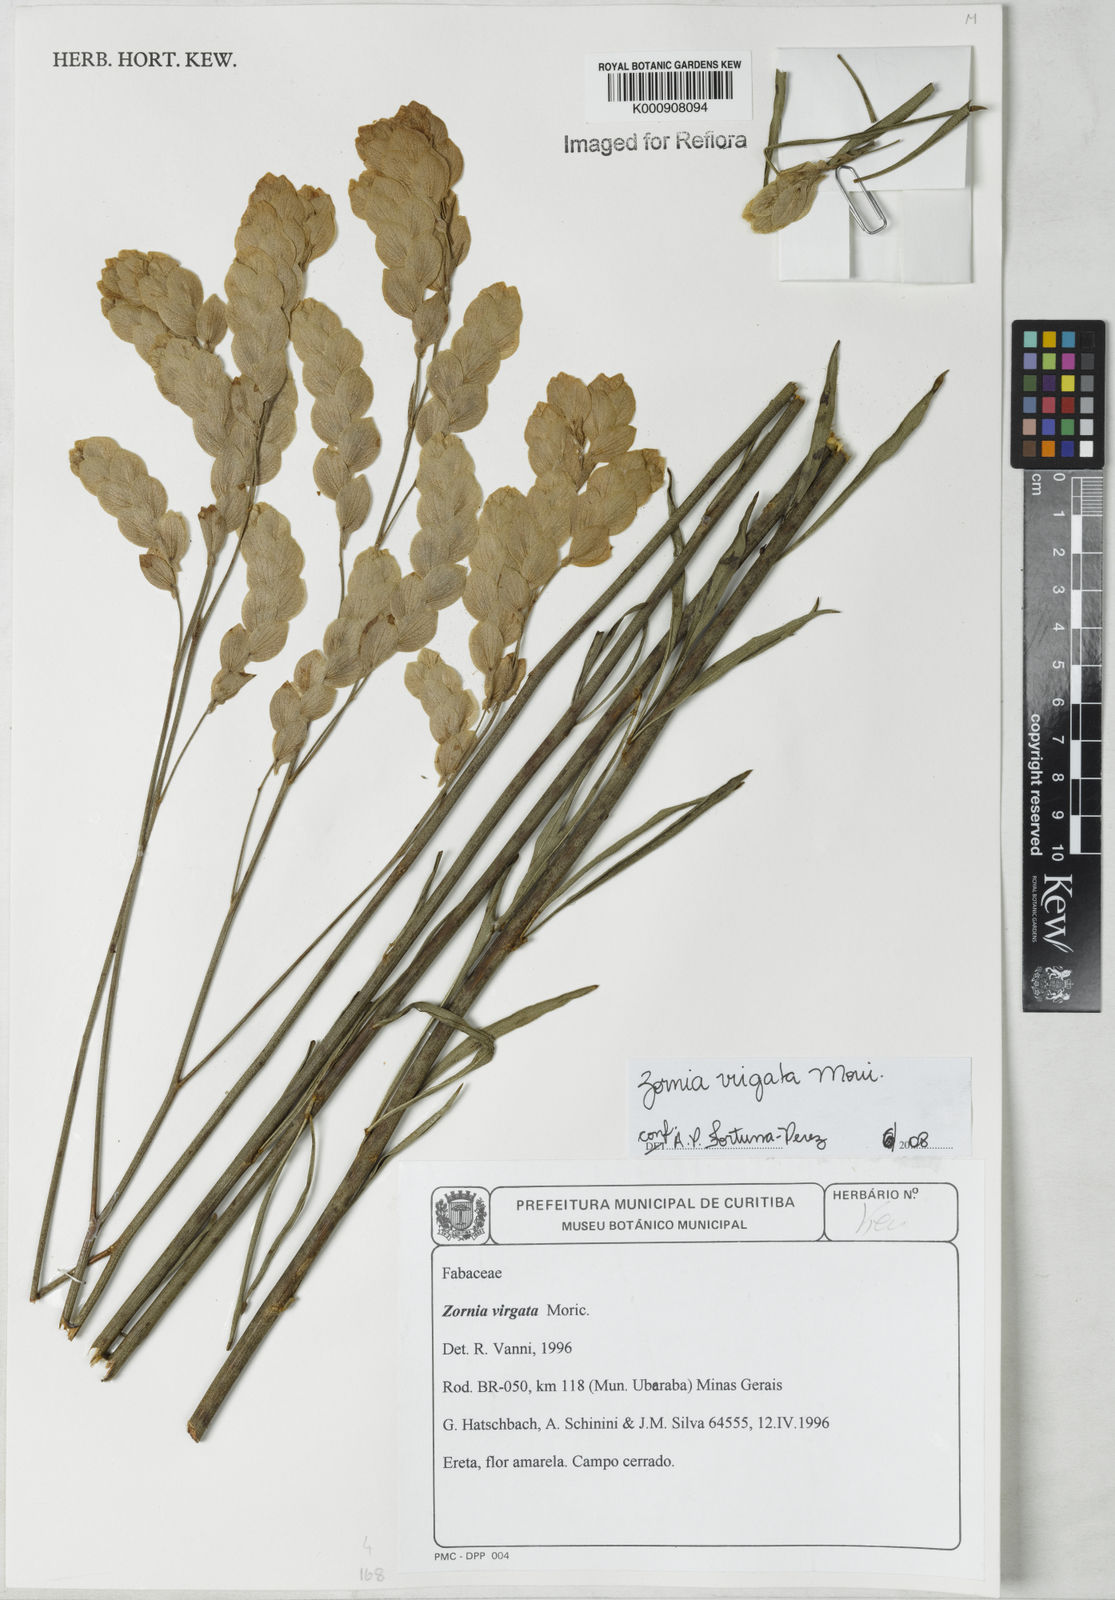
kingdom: Plantae
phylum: Tracheophyta
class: Magnoliopsida
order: Fabales
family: Fabaceae
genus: Zornia
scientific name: Zornia virgata
